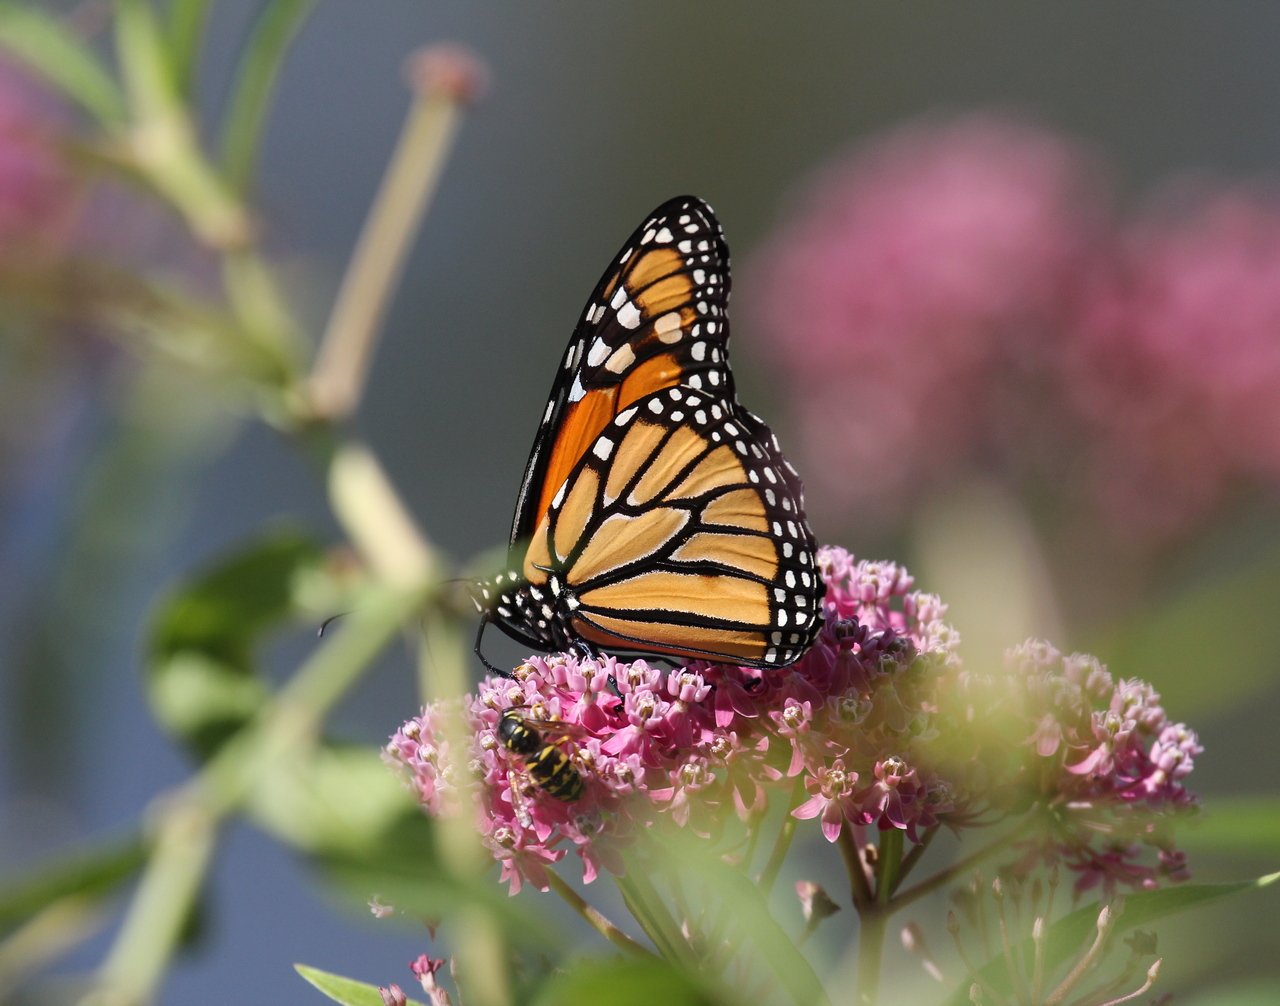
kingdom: Animalia
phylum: Arthropoda
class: Insecta
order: Lepidoptera
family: Nymphalidae
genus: Danaus
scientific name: Danaus plexippus
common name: Monarch
